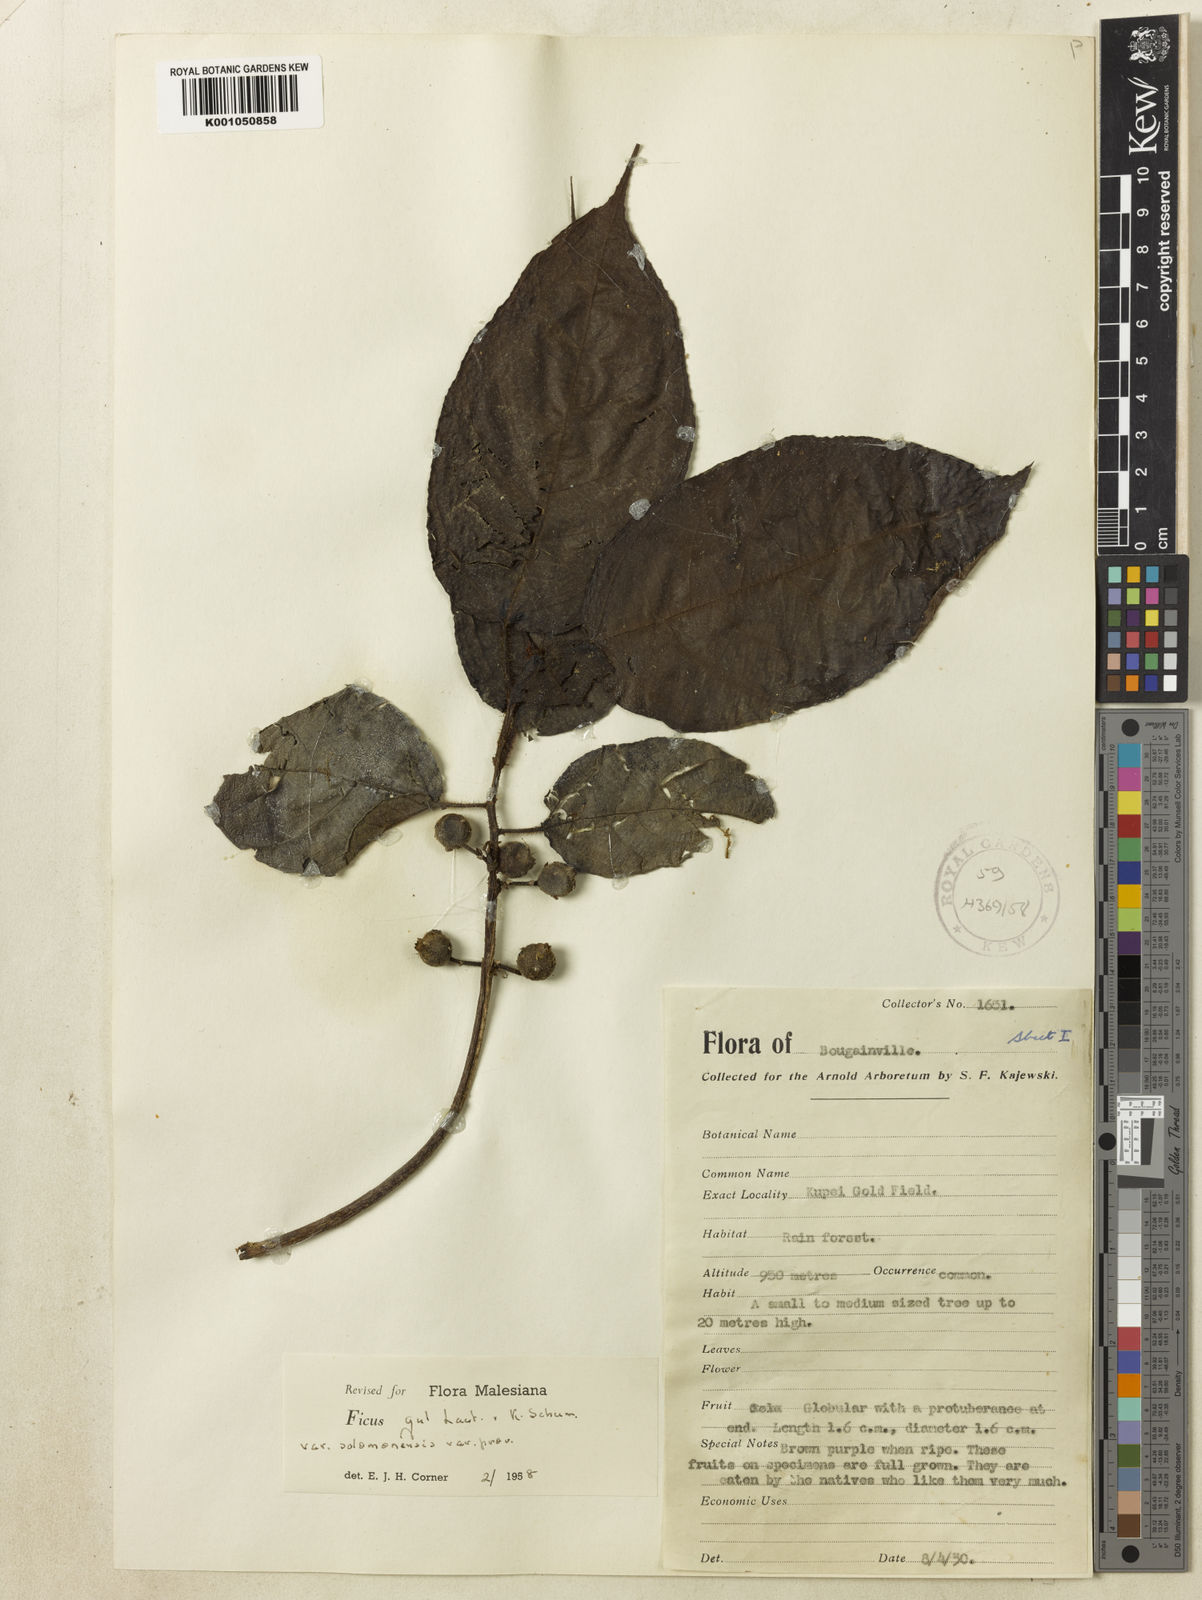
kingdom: Plantae
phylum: Tracheophyta
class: Magnoliopsida
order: Rosales
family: Moraceae
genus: Ficus
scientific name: Ficus gul
